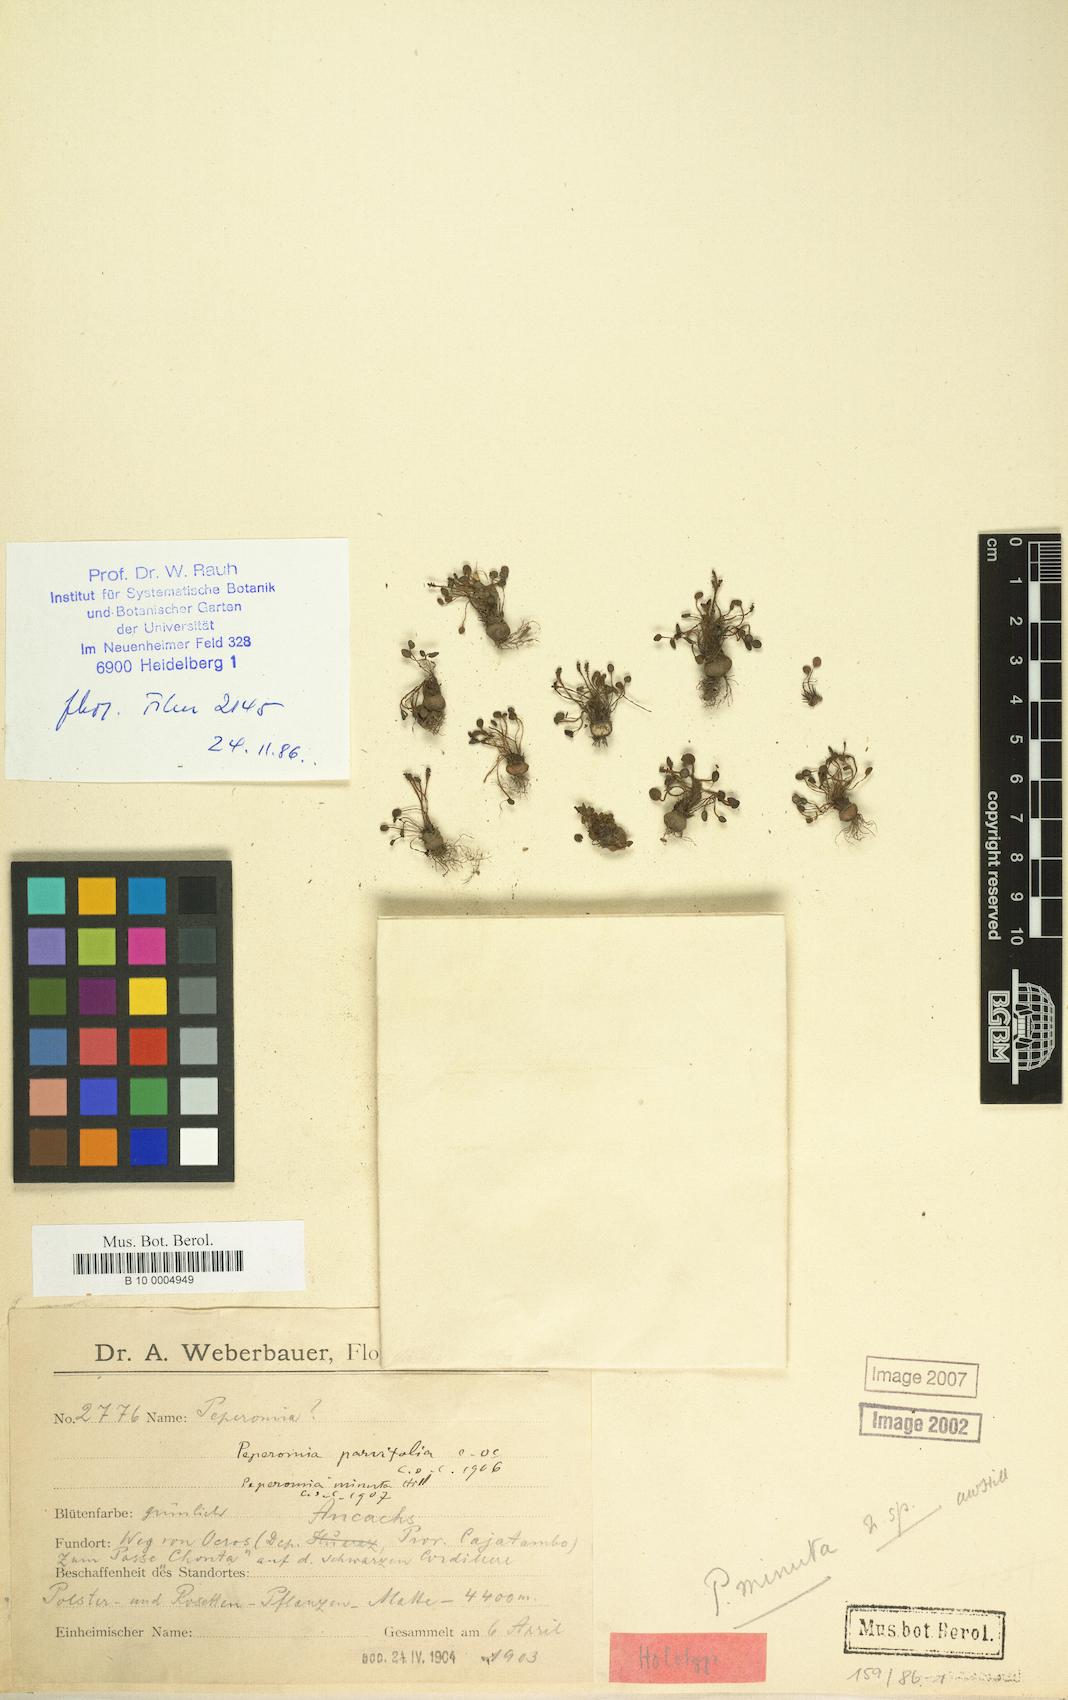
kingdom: Plantae
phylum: Tracheophyta
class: Magnoliopsida
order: Piperales
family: Piperaceae
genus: Peperomia
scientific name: Peperomia minuta
